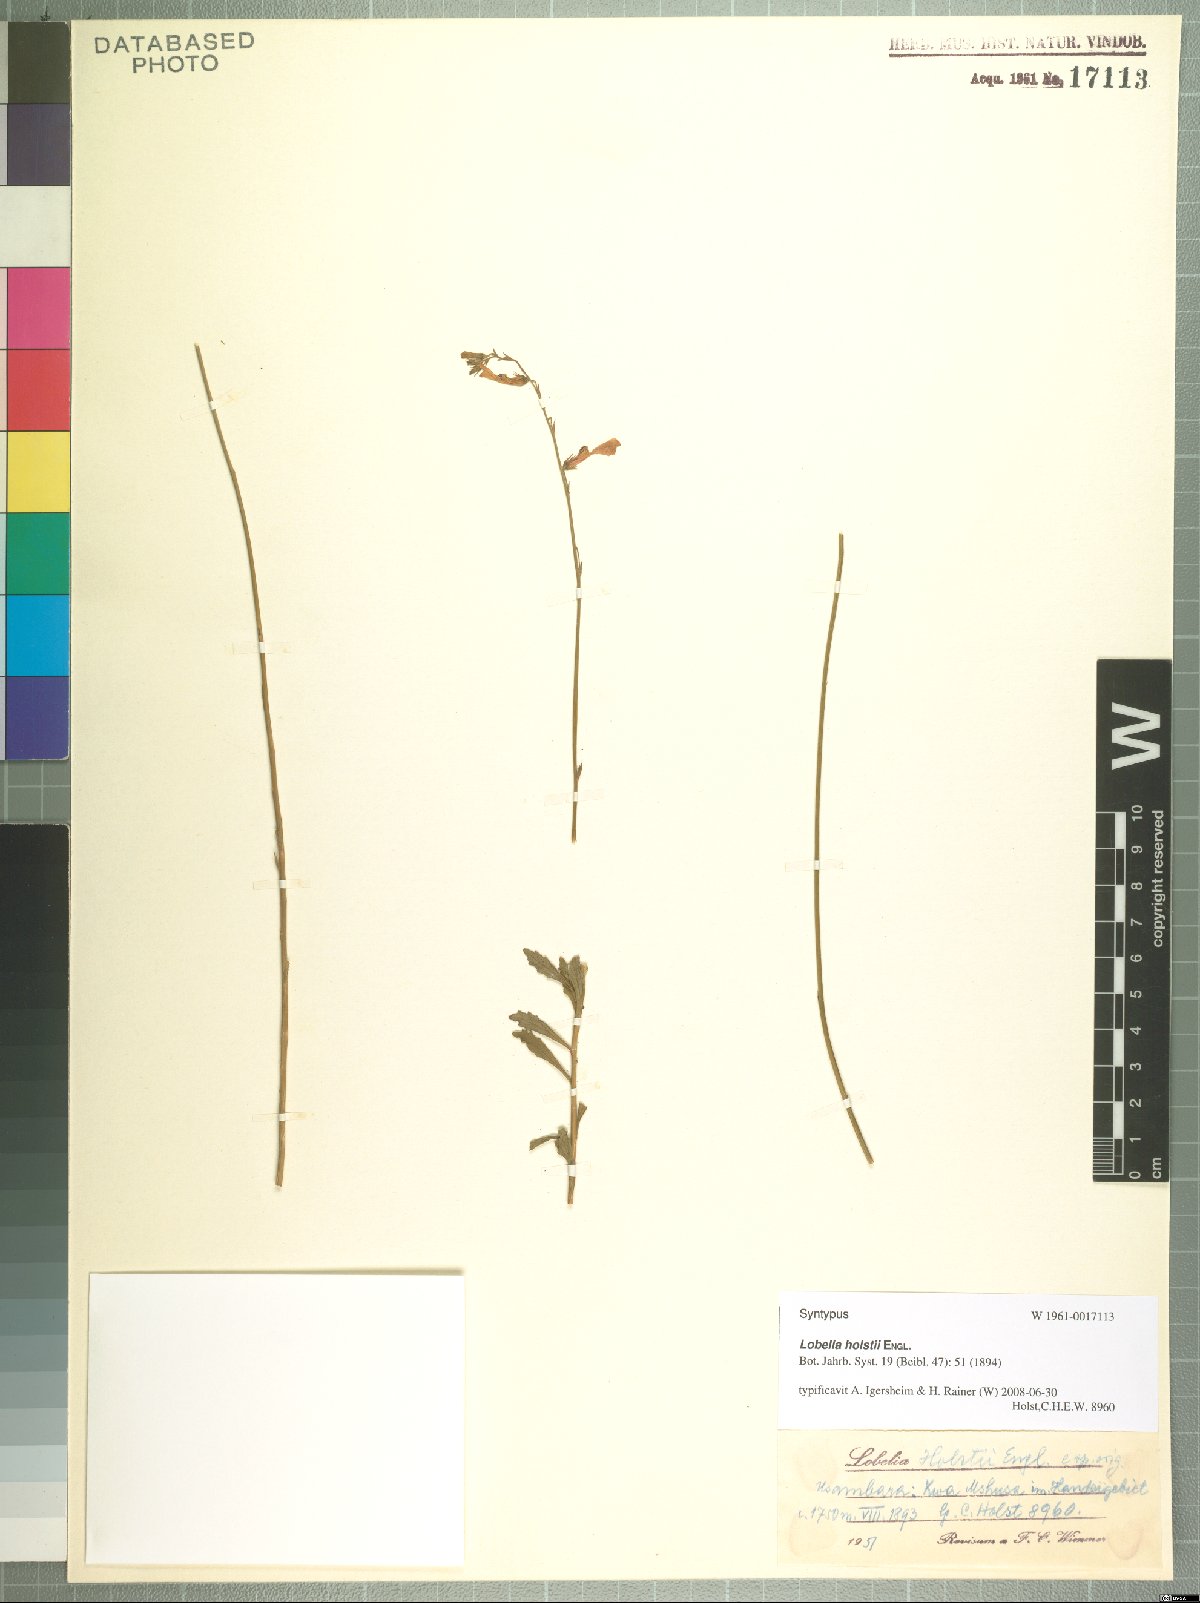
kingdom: Plantae
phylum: Tracheophyta
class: Magnoliopsida
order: Asterales
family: Campanulaceae
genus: Lobelia
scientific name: Lobelia holstii
